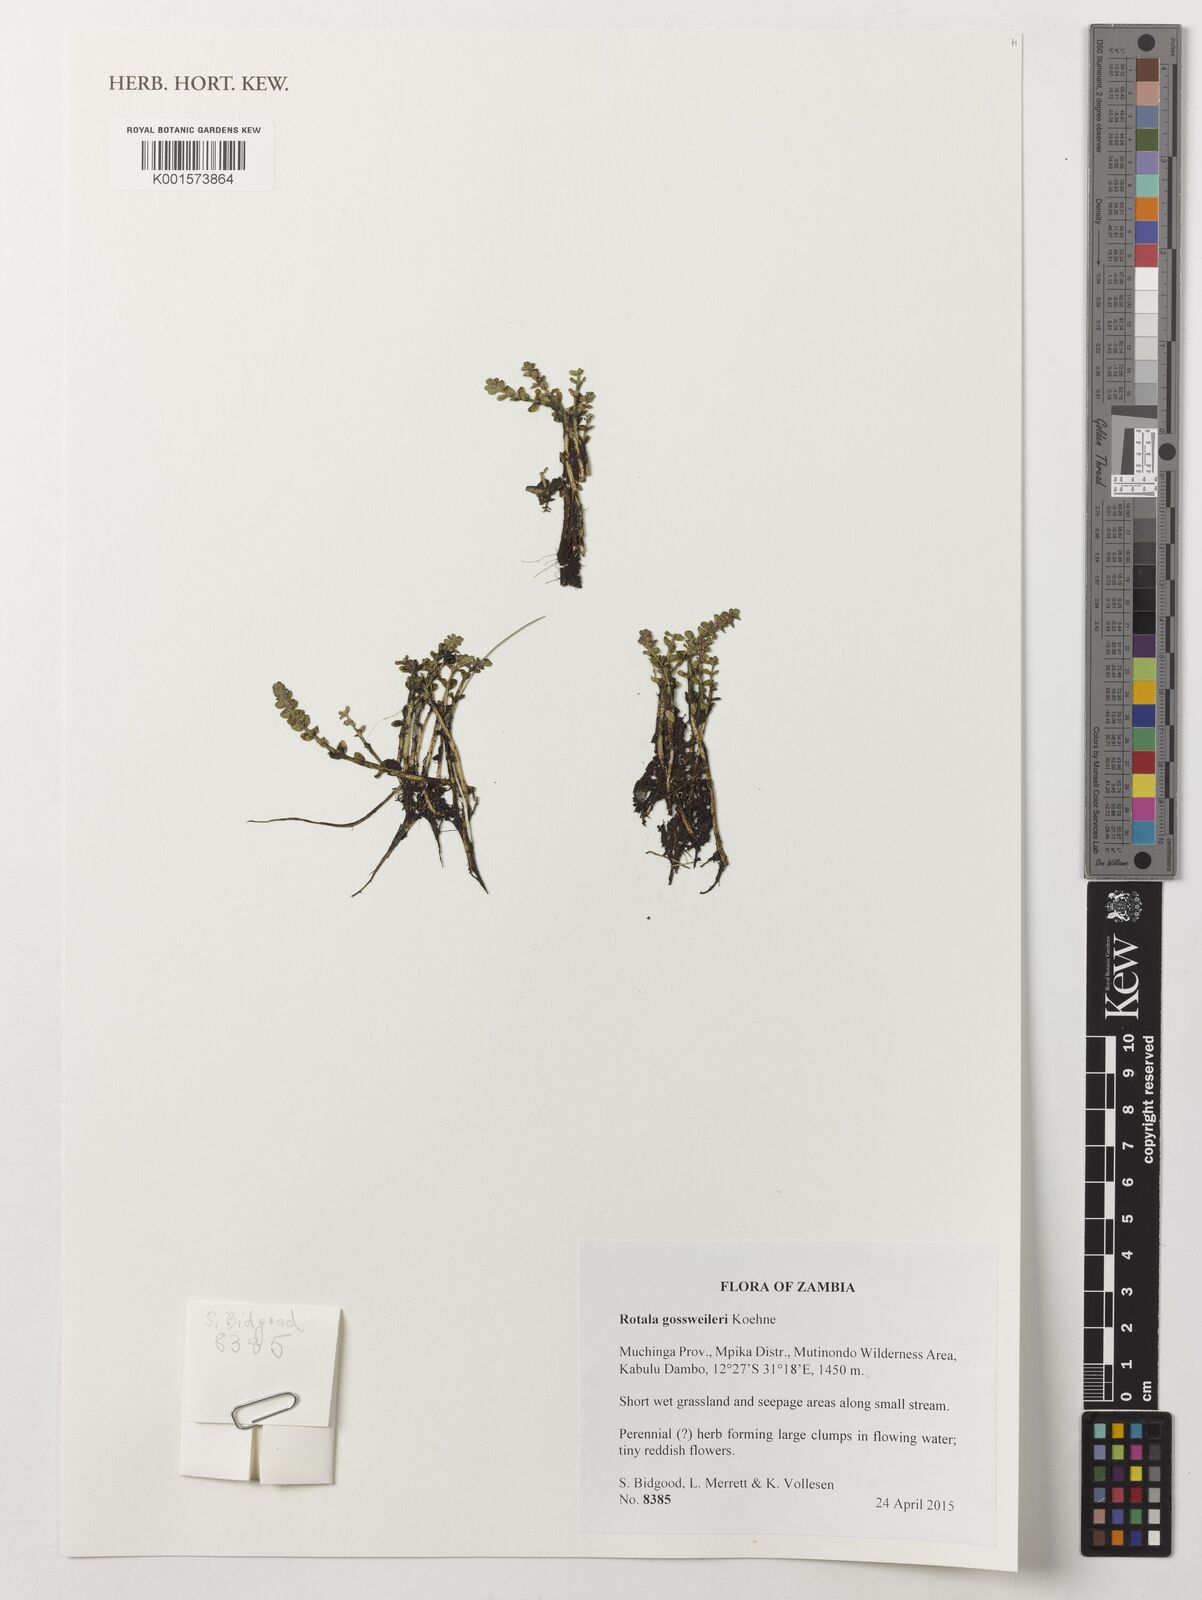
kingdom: Plantae
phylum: Tracheophyta
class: Magnoliopsida
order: Myrtales
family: Lythraceae
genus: Rotala
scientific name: Rotala gossweileri
